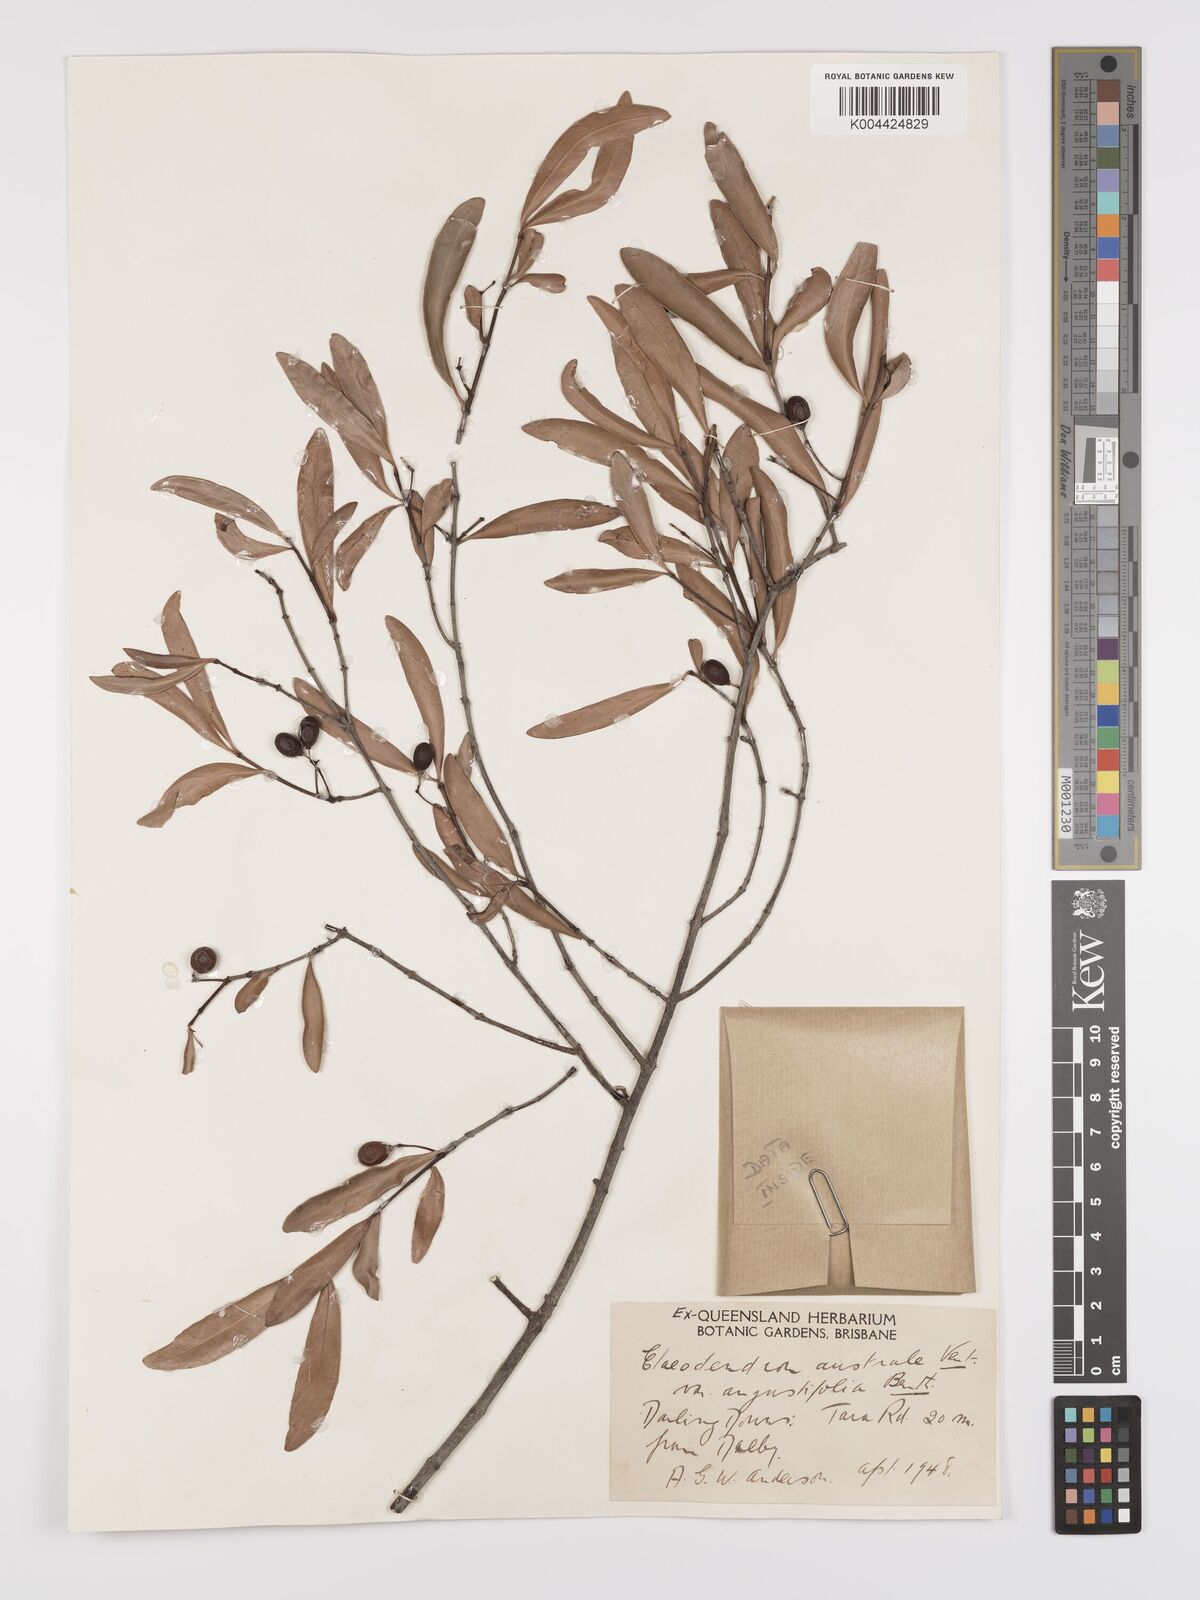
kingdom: Plantae
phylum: Tracheophyta
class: Magnoliopsida
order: Celastrales
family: Celastraceae
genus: Elaeodendron
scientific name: Elaeodendron australe
